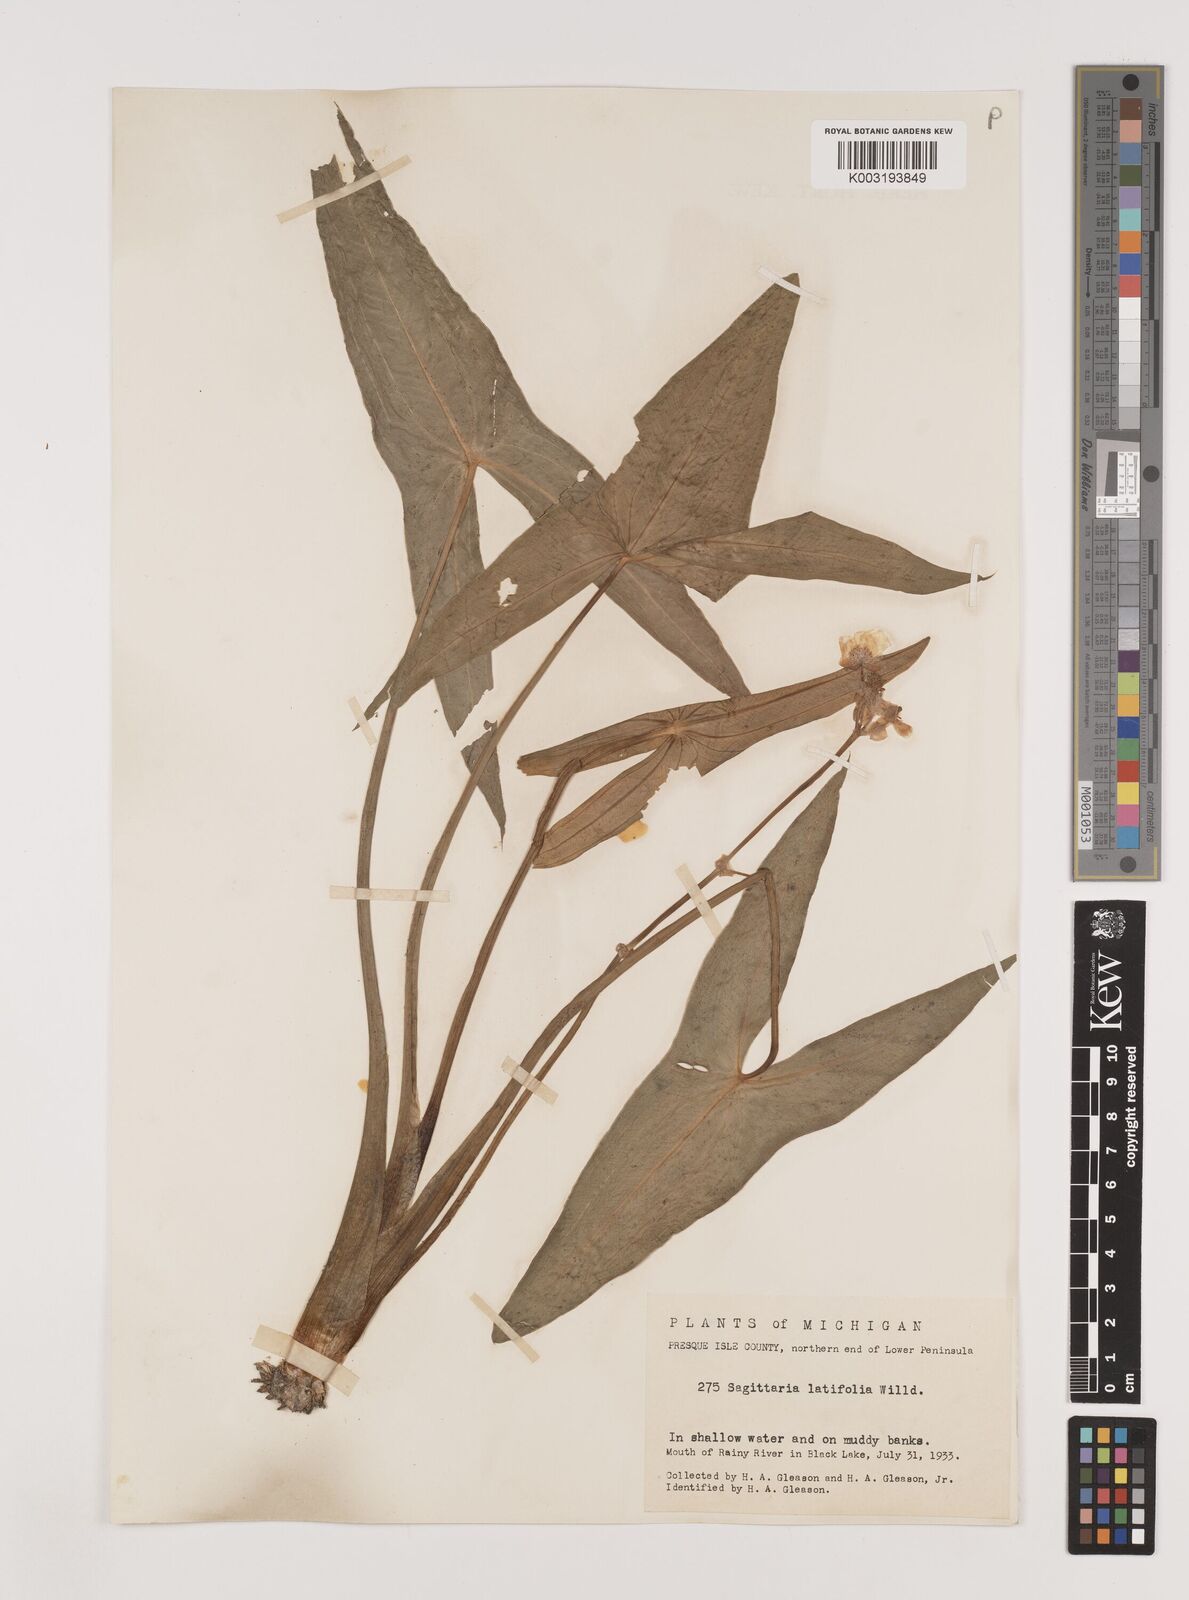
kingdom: Plantae
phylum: Tracheophyta
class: Liliopsida
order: Alismatales
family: Alismataceae
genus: Sagittaria
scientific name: Sagittaria latifolia
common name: Duck-potato
